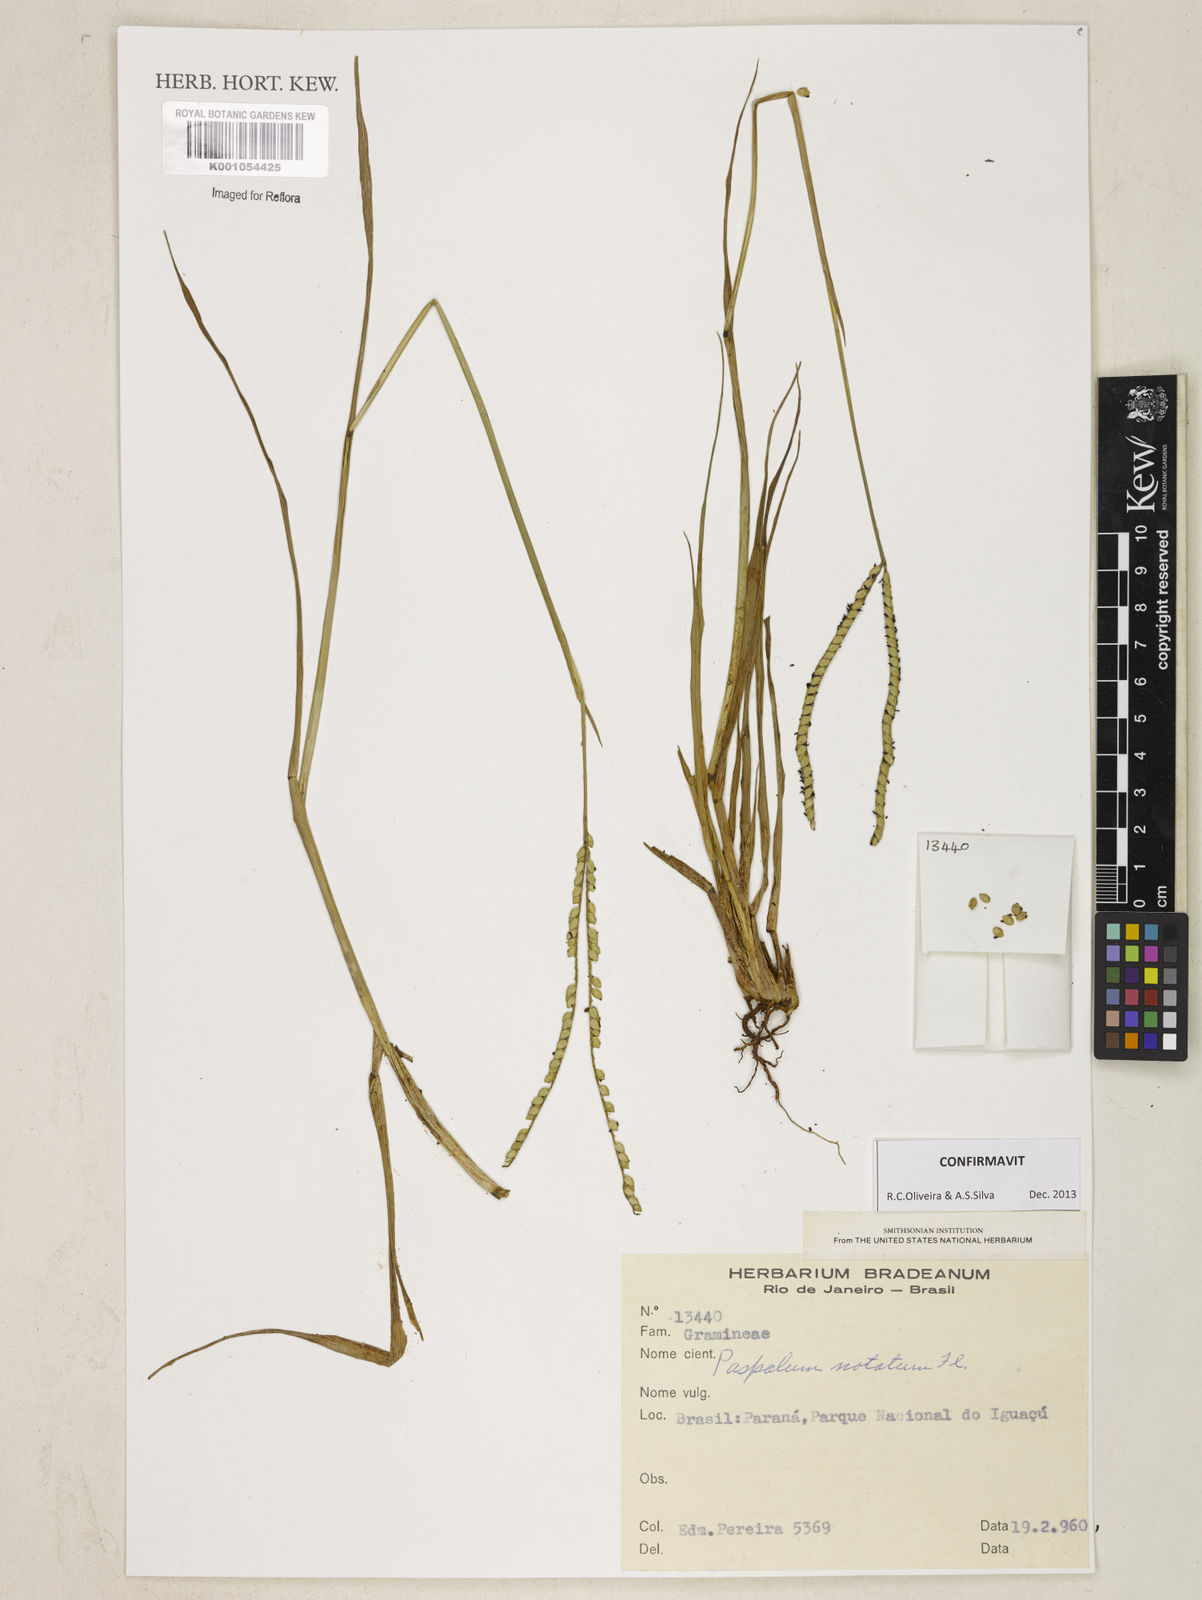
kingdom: Plantae
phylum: Tracheophyta
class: Liliopsida
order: Poales
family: Poaceae
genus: Paspalum
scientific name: Paspalum
